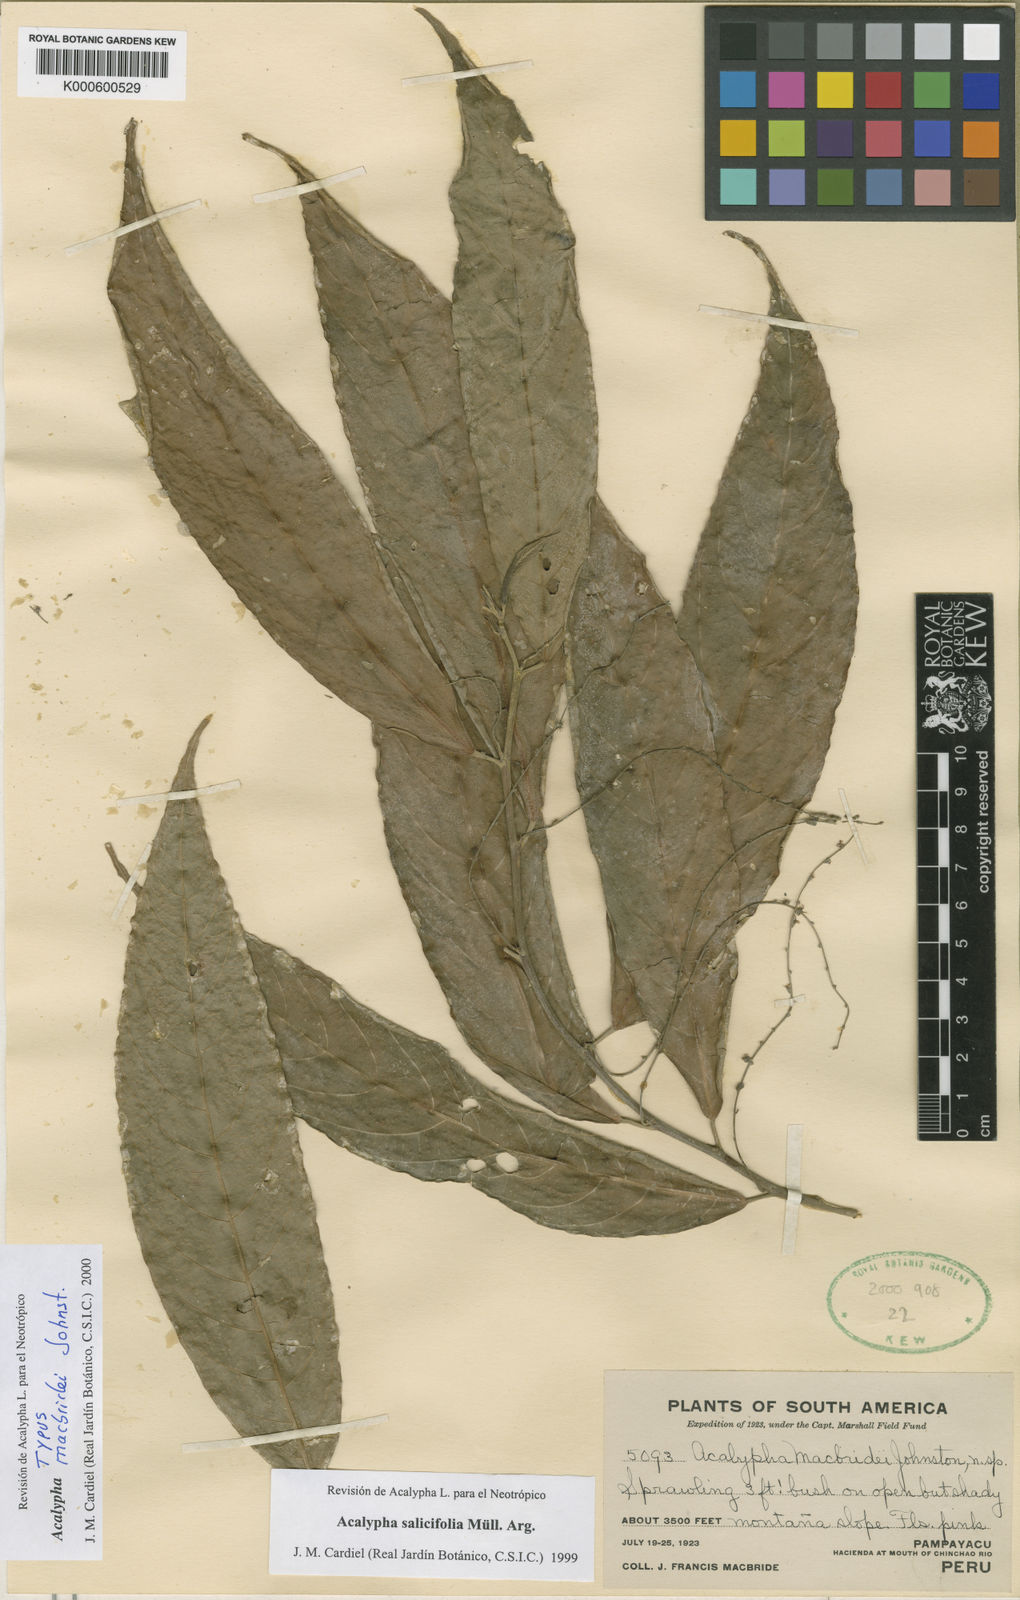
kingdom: Plantae
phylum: Tracheophyta
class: Magnoliopsida
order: Malpighiales
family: Euphorbiaceae
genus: Acalypha
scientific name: Acalypha
